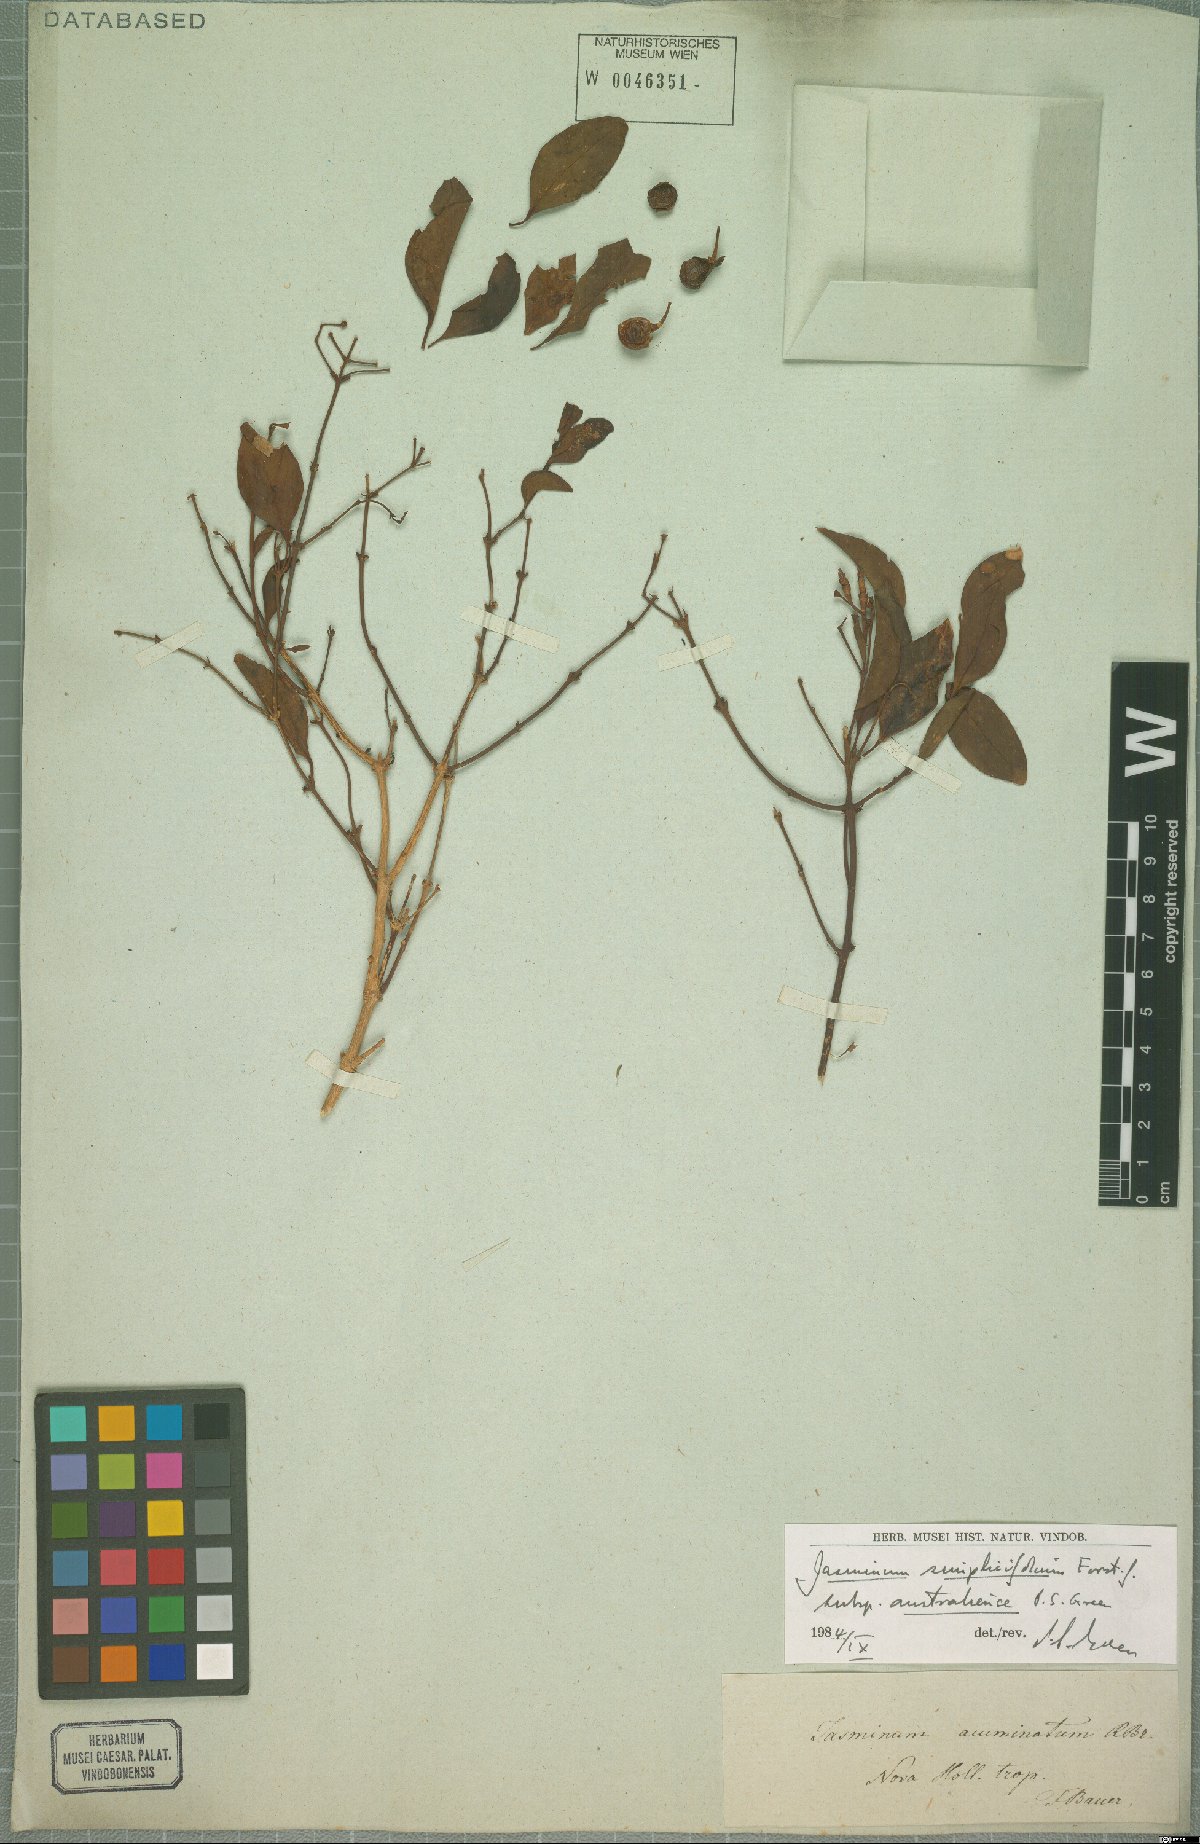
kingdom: Plantae
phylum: Tracheophyta
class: Magnoliopsida
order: Lamiales
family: Oleaceae
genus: Jasminum
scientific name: Jasminum simplicifolium
